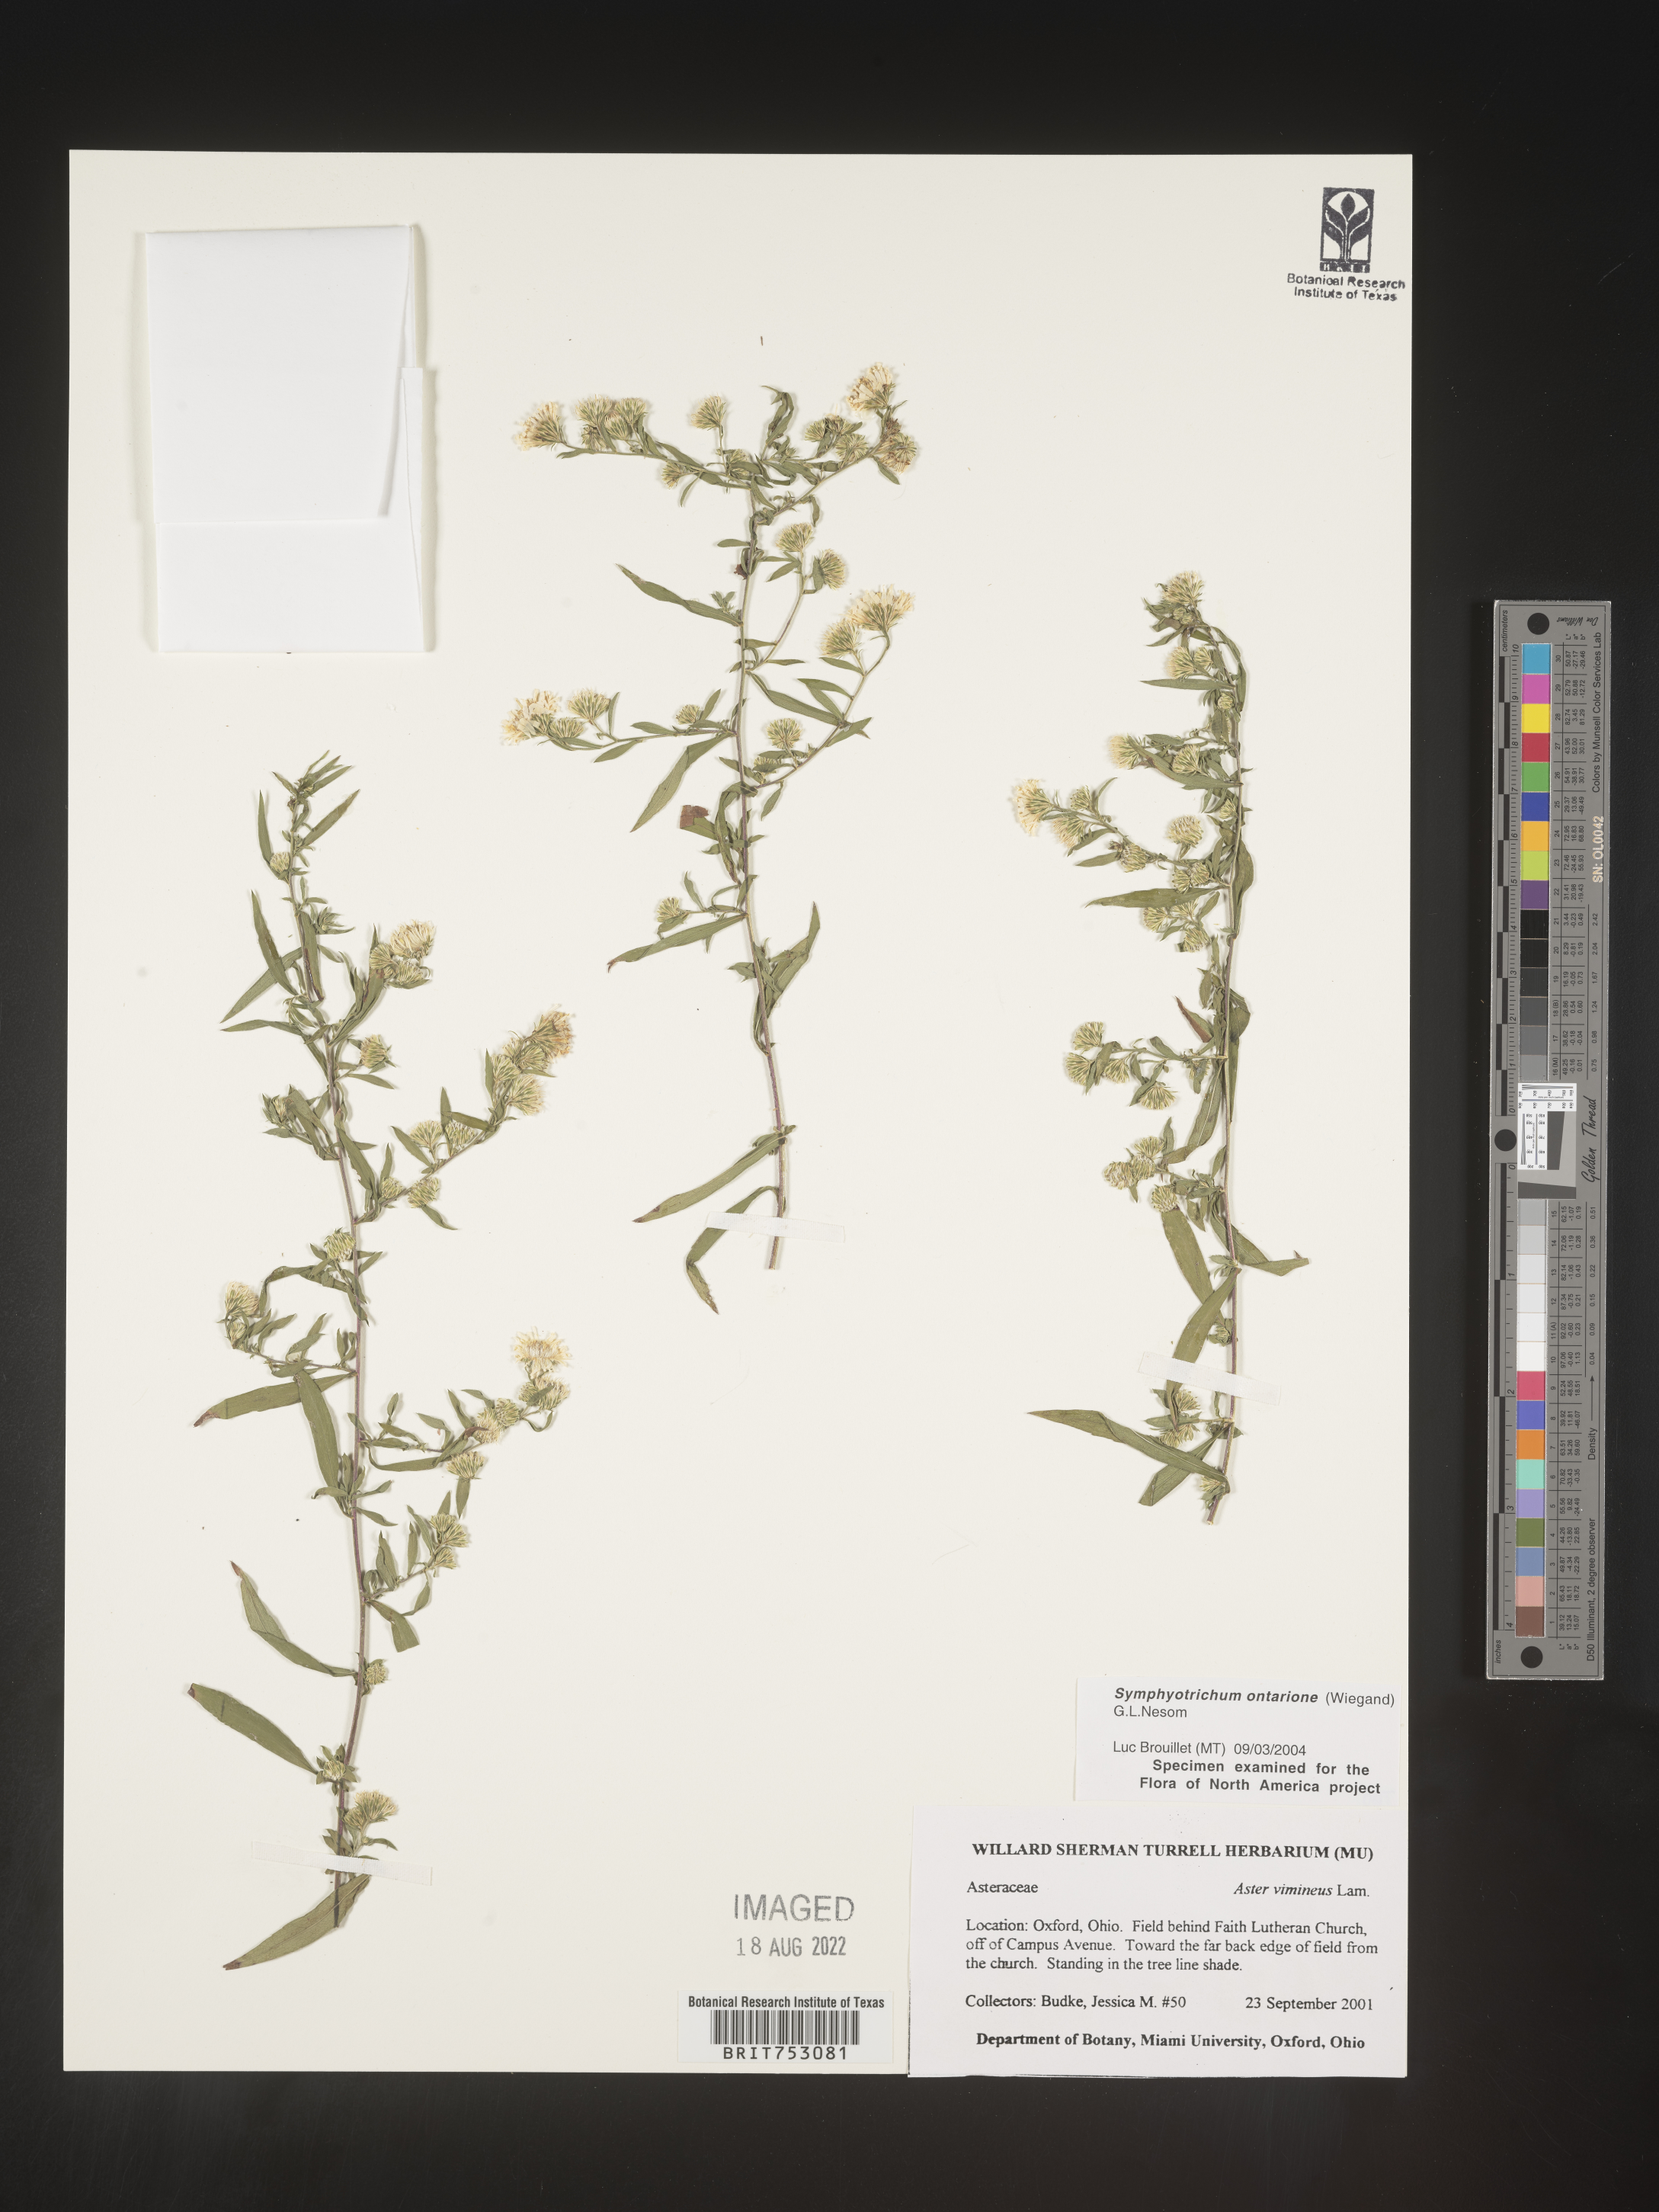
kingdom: Plantae
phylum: Tracheophyta
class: Magnoliopsida
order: Asterales
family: Asteraceae
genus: Symphyotrichum
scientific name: Symphyotrichum ontarionis
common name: Bottomland aster
